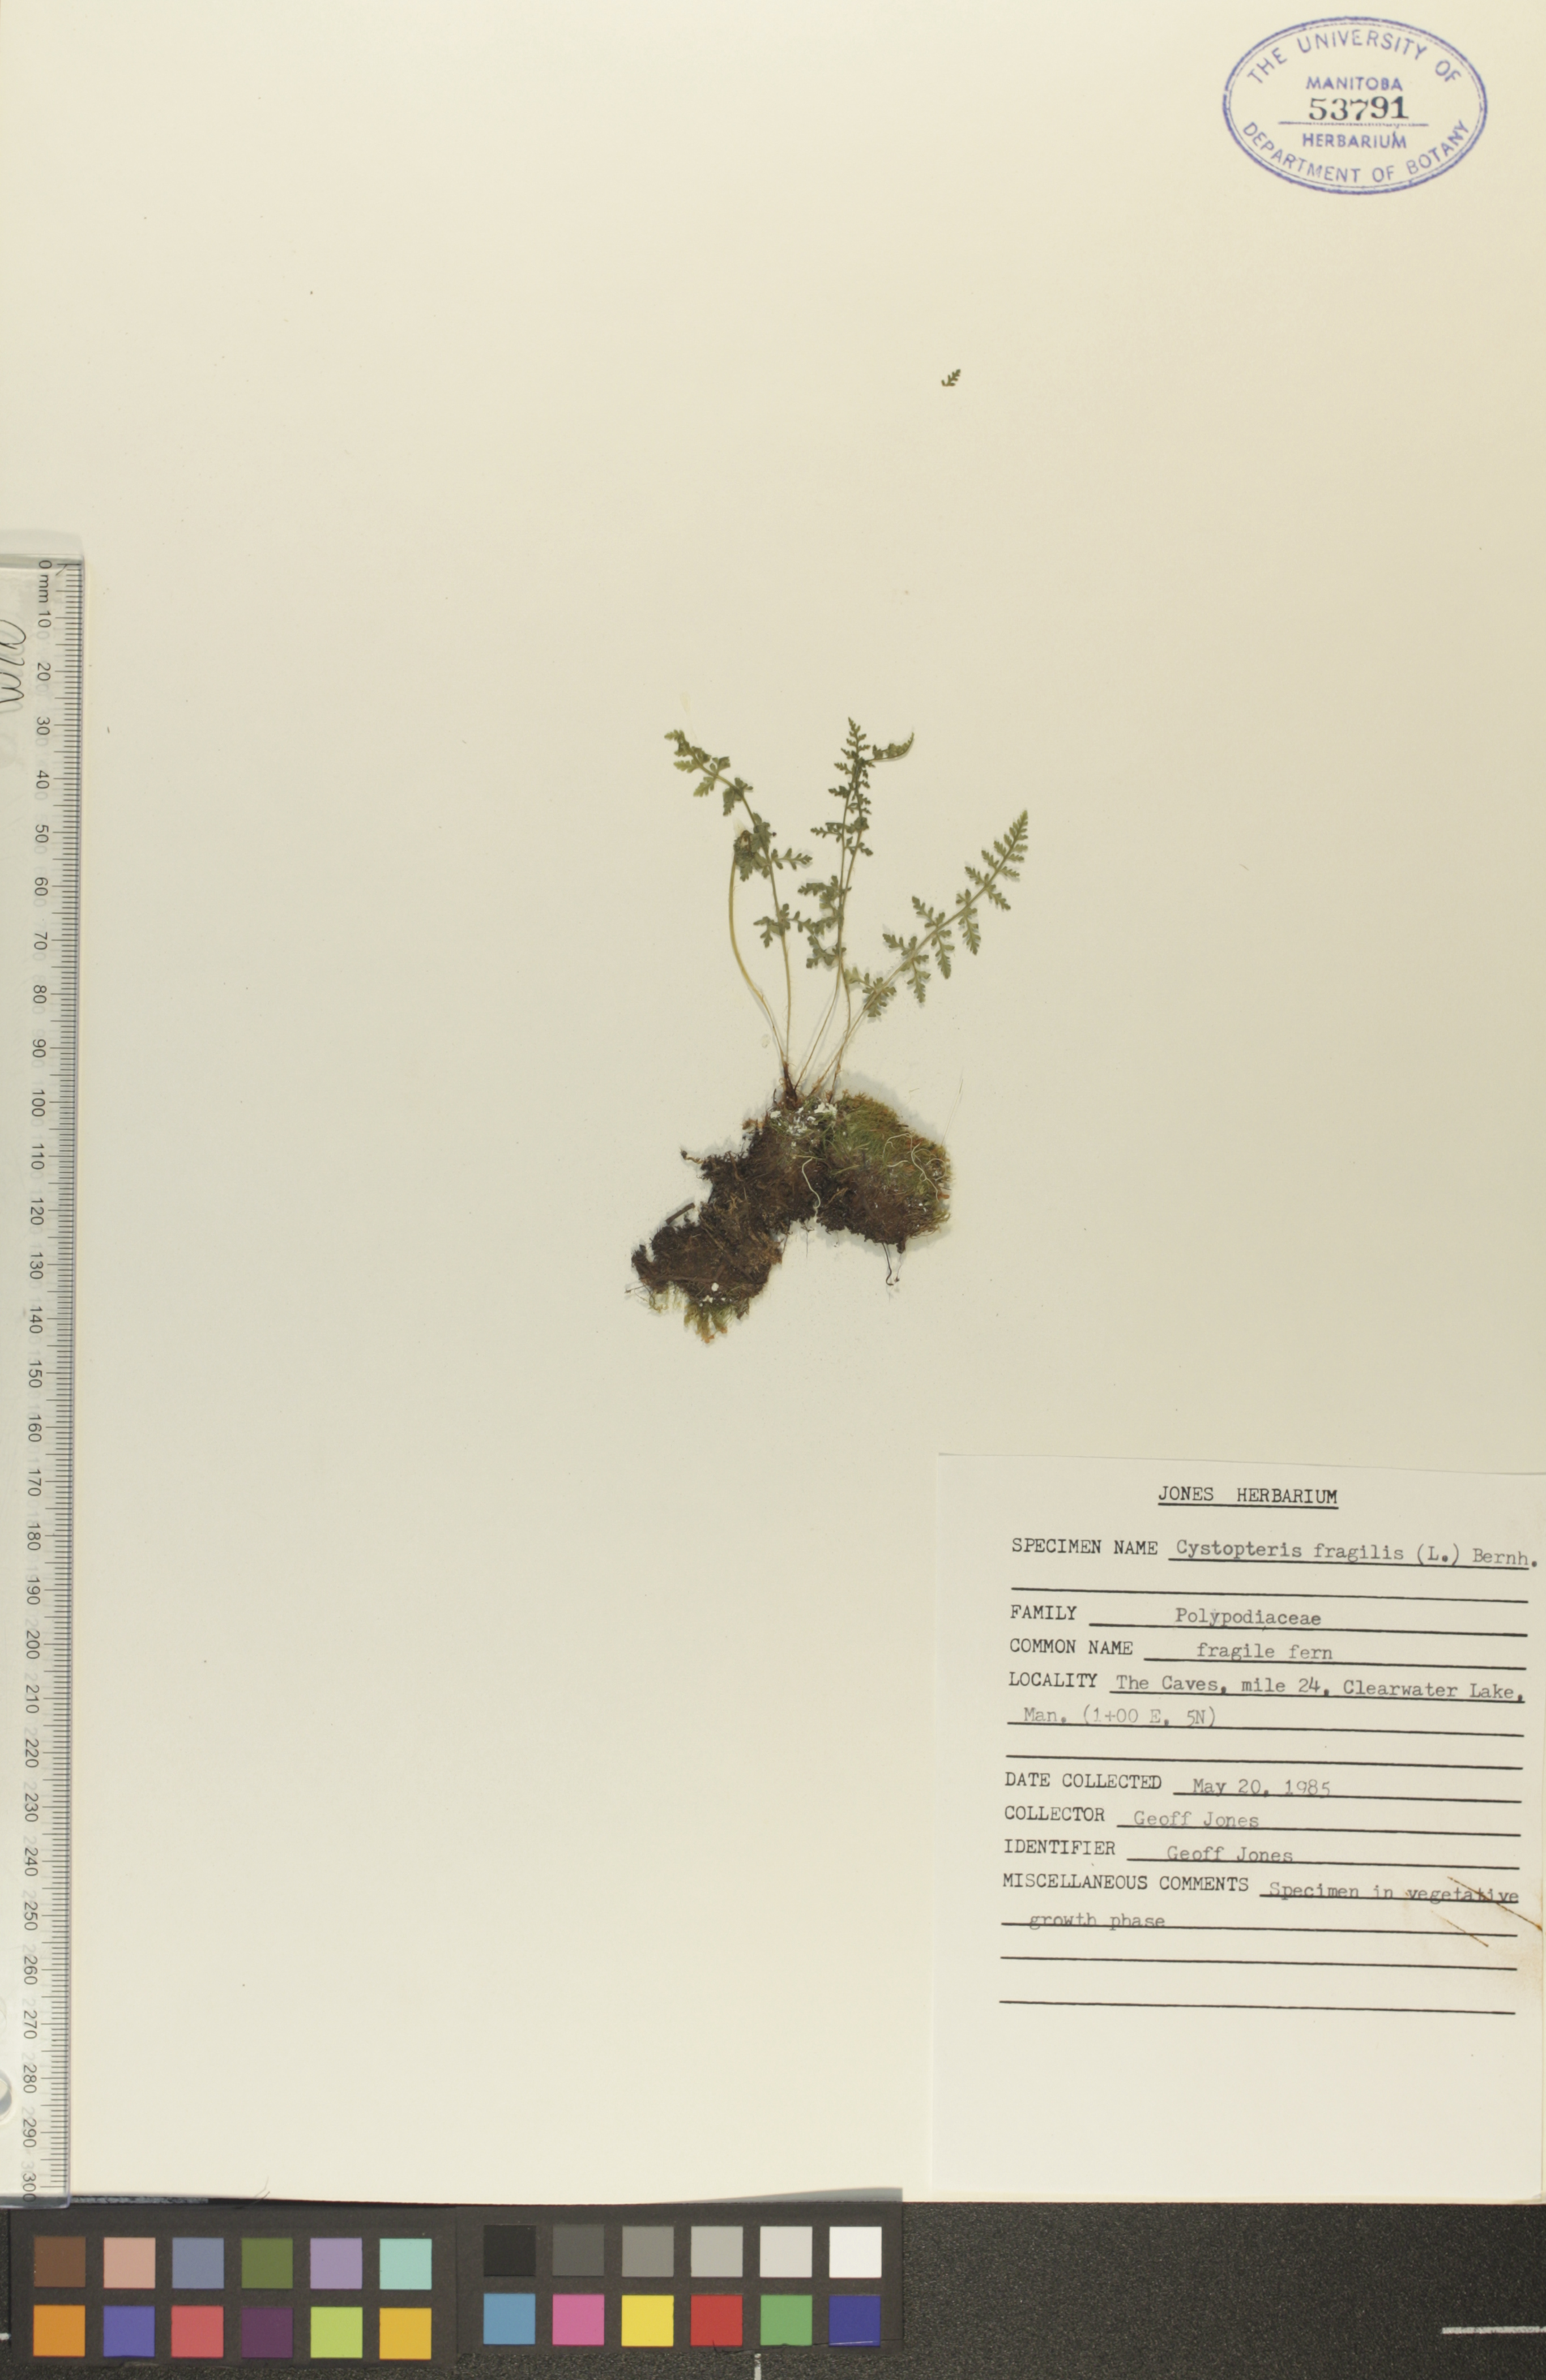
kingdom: Plantae
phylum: Tracheophyta
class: Polypodiopsida
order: Polypodiales
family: Cystopteridaceae
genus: Cystopteris
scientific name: Cystopteris fragilis
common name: Brittle bladder fern
